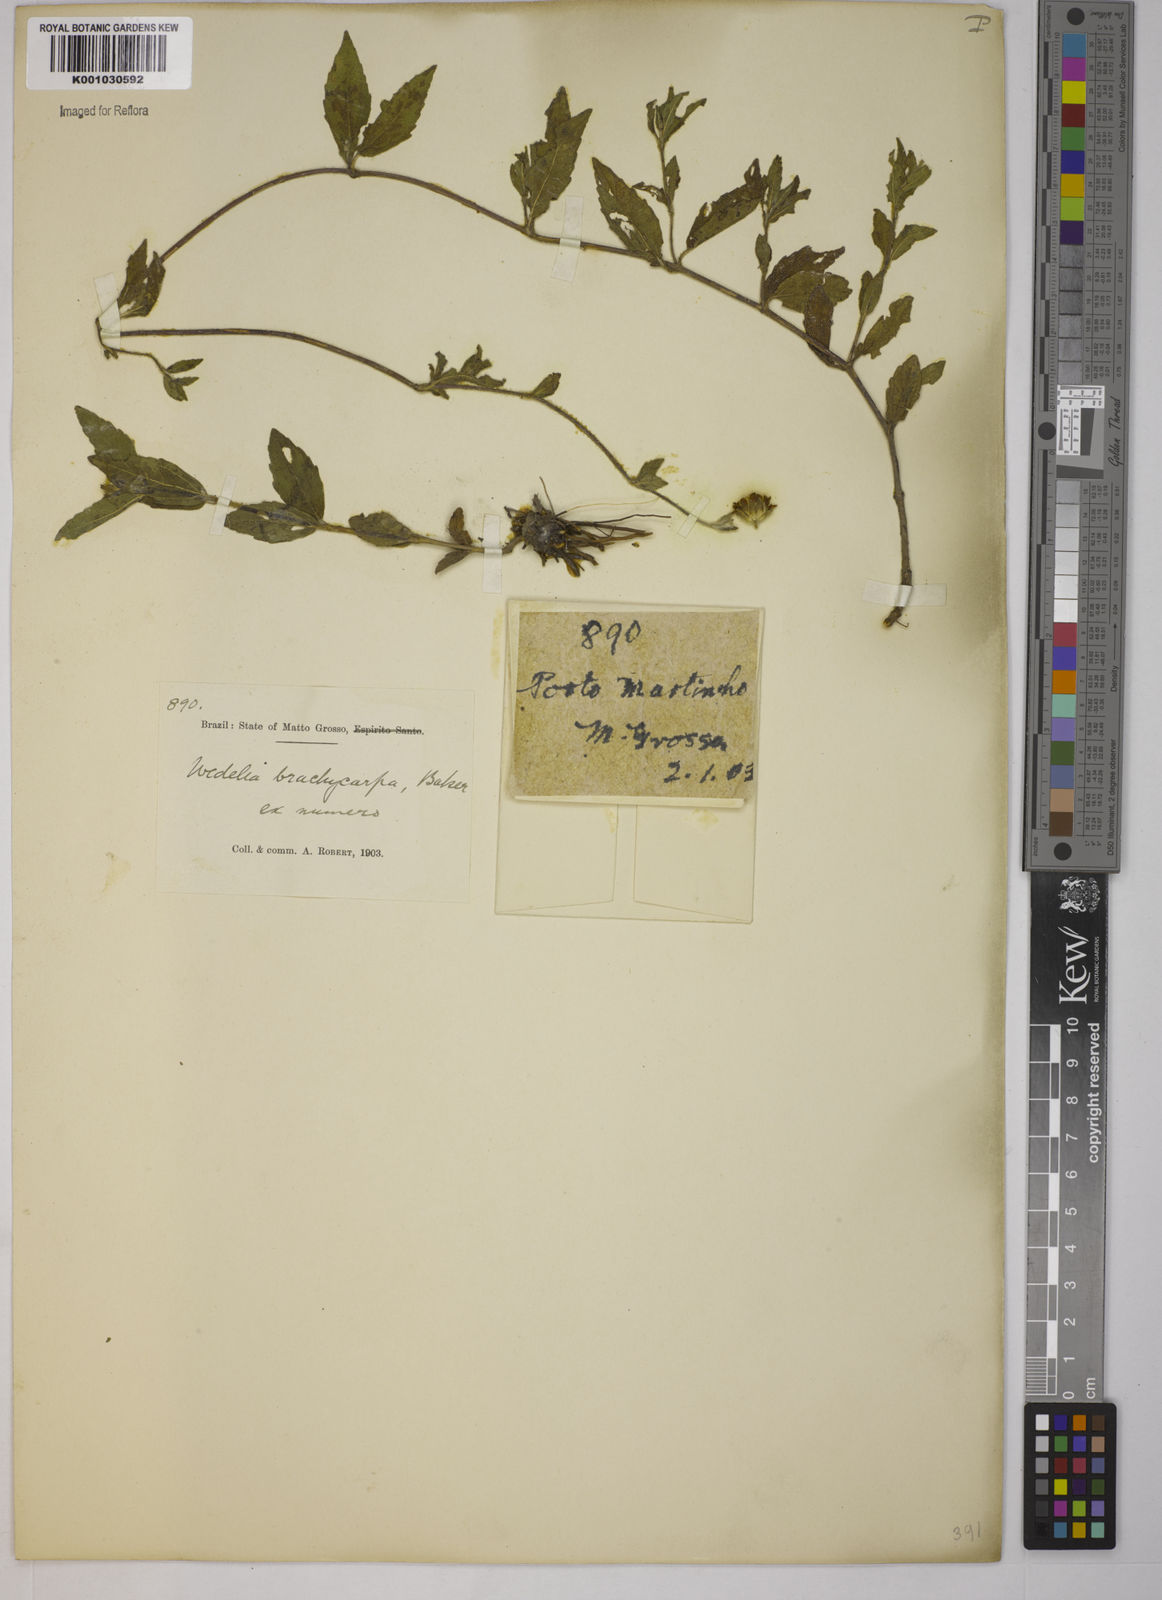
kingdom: Plantae
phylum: Tracheophyta
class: Magnoliopsida
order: Asterales
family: Asteraceae
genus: Sphagneticola
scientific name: Sphagneticola trilobata
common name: Bay biscayne creeping-oxeye
